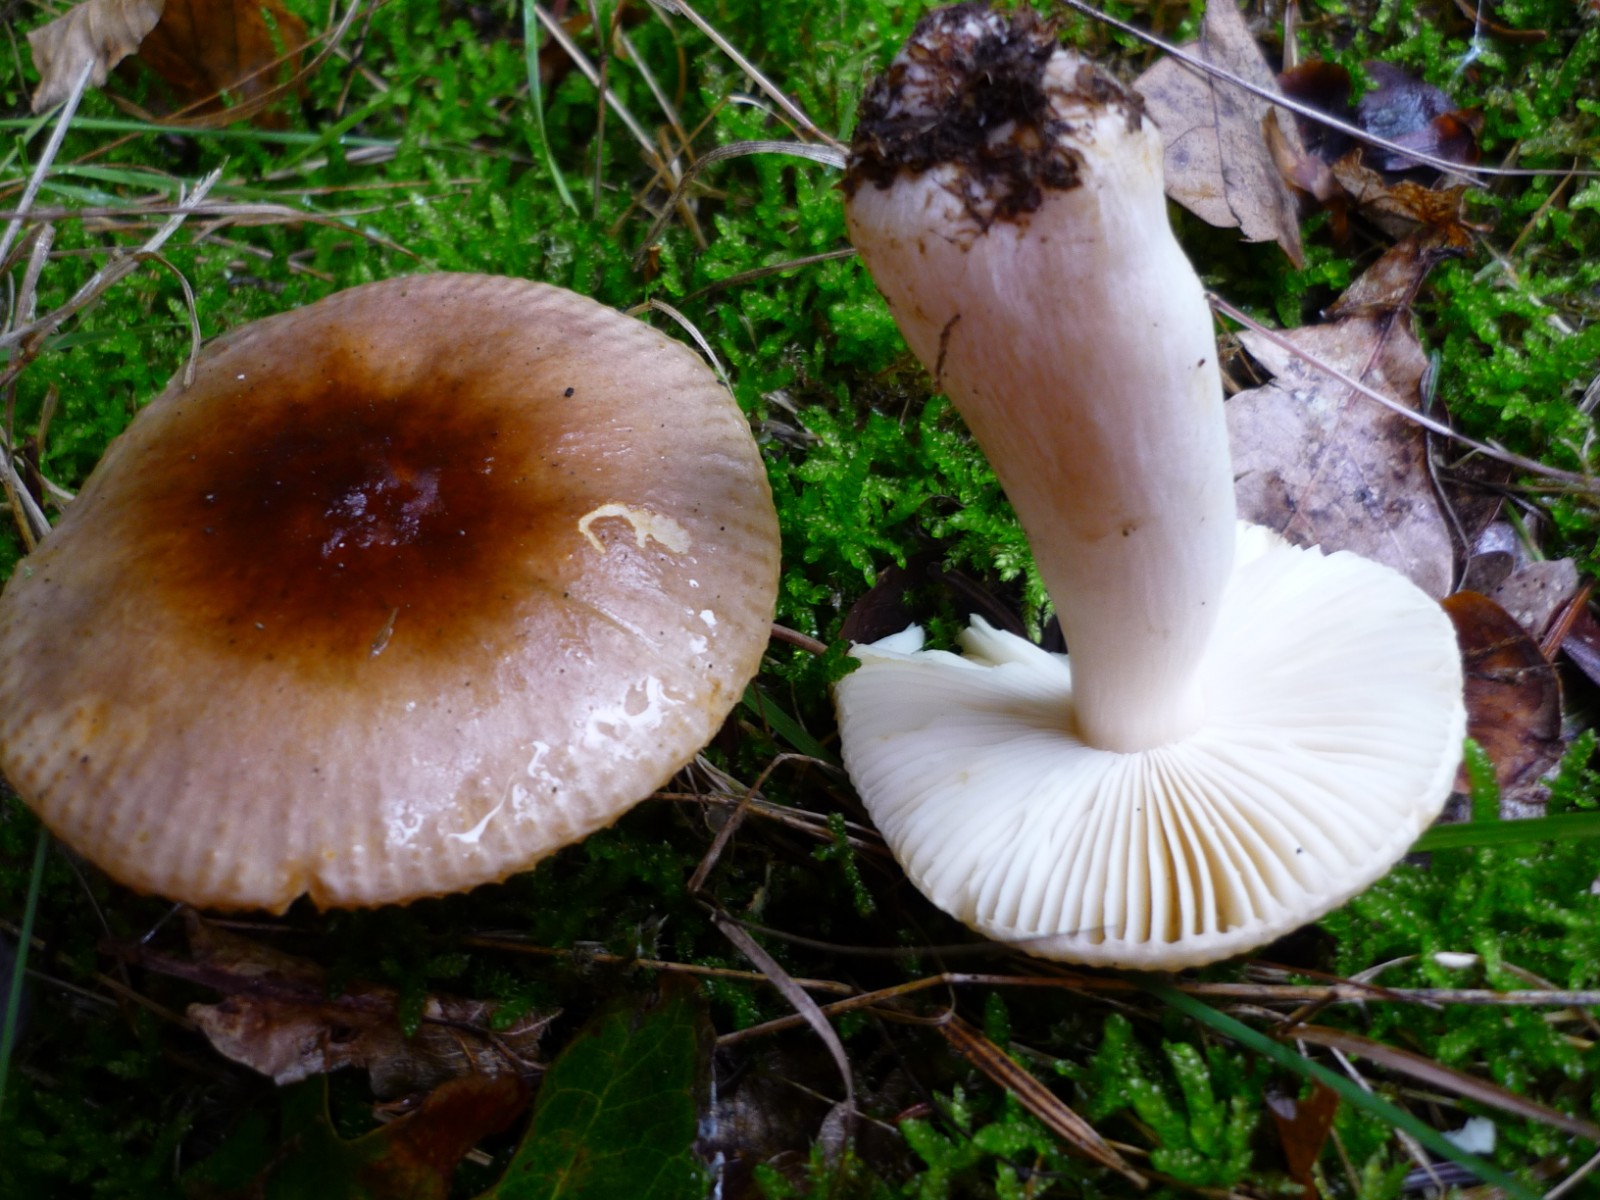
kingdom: Fungi
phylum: Basidiomycota
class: Agaricomycetes
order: Russulales
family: Russulaceae
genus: Russula
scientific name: Russula nauseosa
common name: spinkel skørhat
